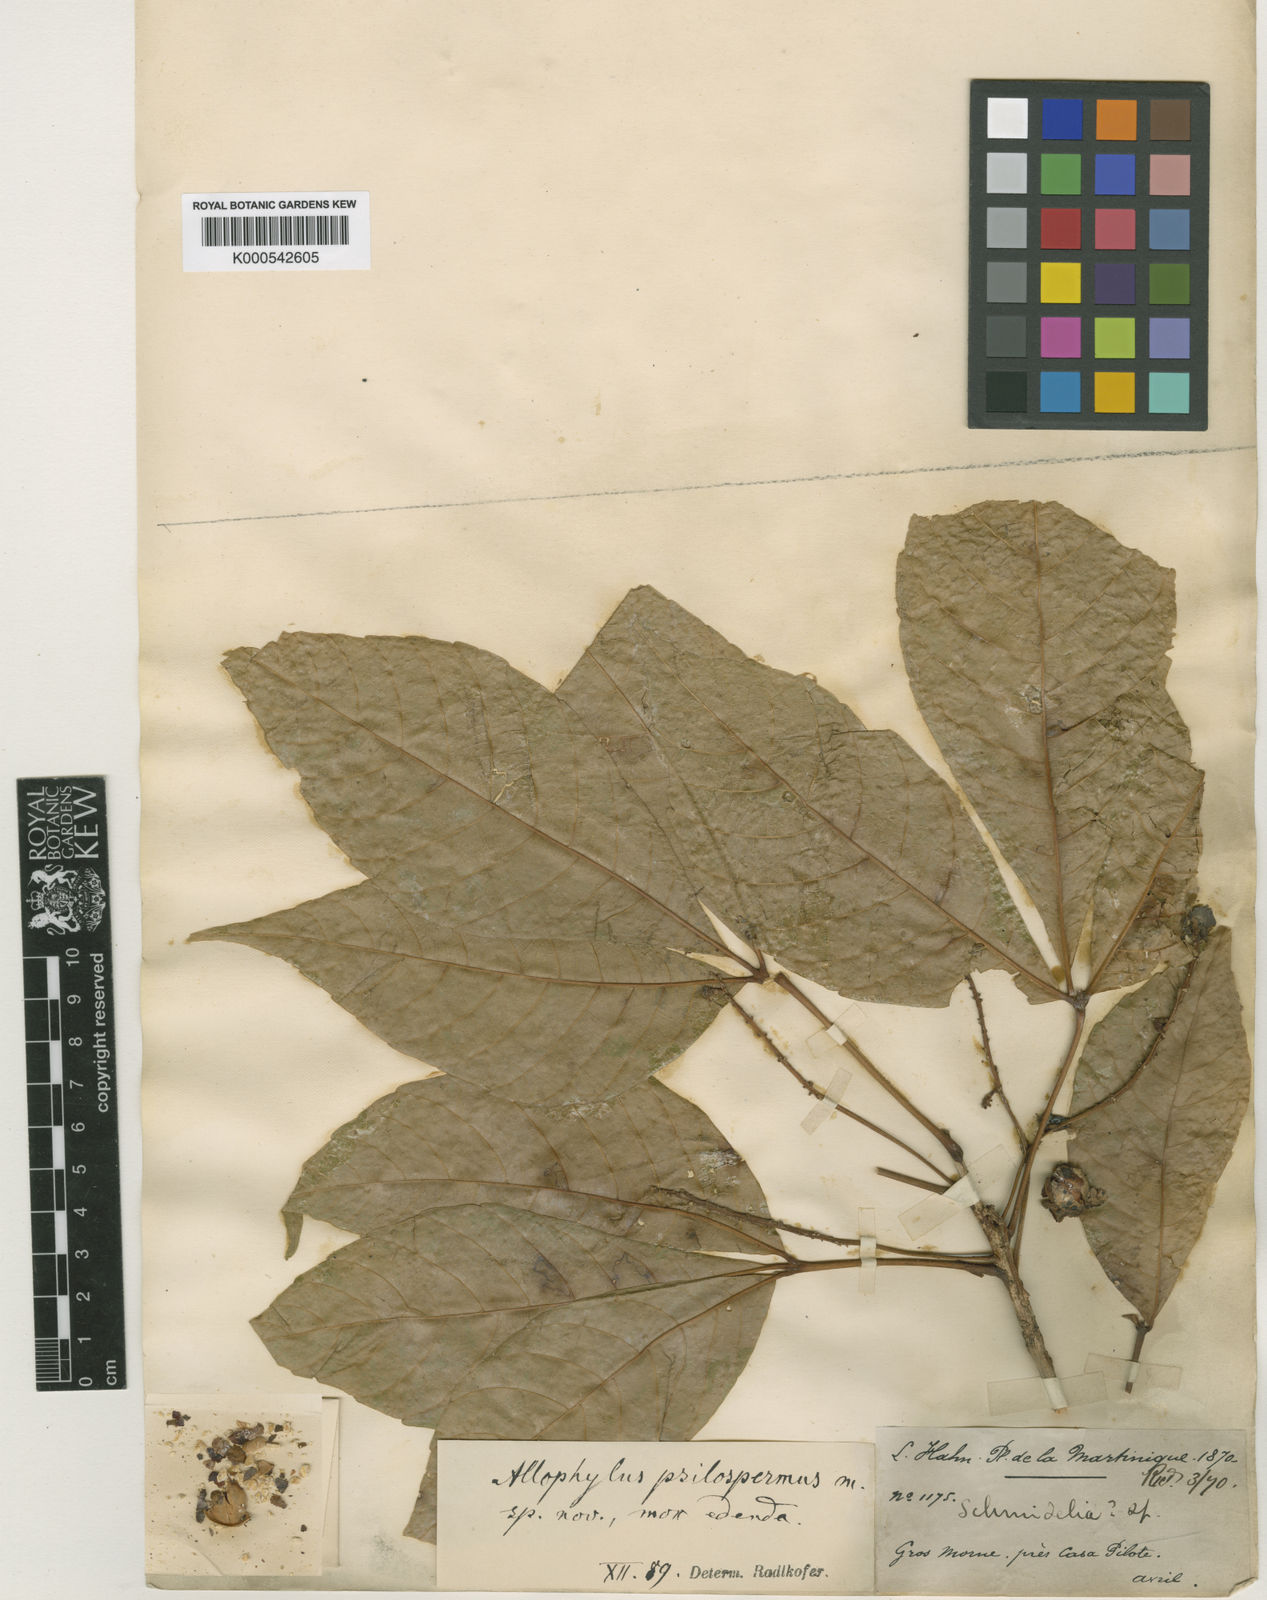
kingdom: Plantae
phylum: Tracheophyta
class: Magnoliopsida
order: Sapindales
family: Sapindaceae
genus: Allophylus
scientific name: Allophylus psilospermus
